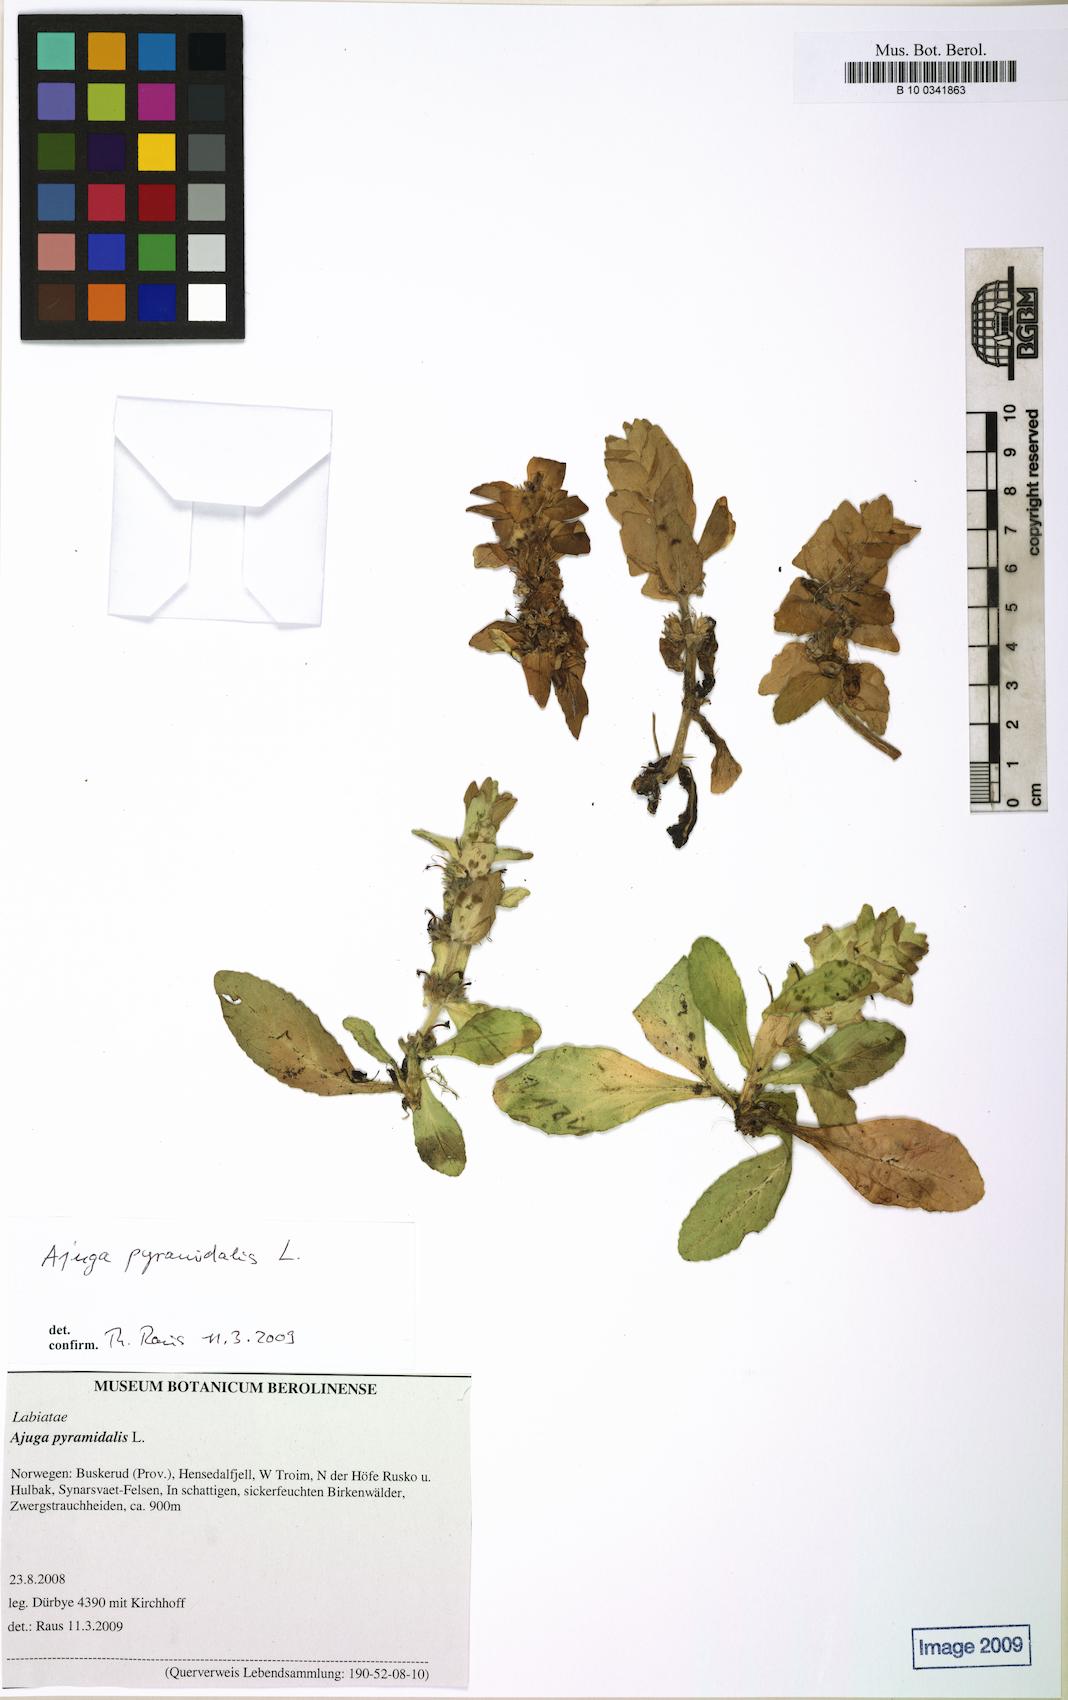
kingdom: Plantae
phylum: Tracheophyta
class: Magnoliopsida
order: Lamiales
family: Lamiaceae
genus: Ajuga
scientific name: Ajuga pyramidalis
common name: Pyramid bugle
